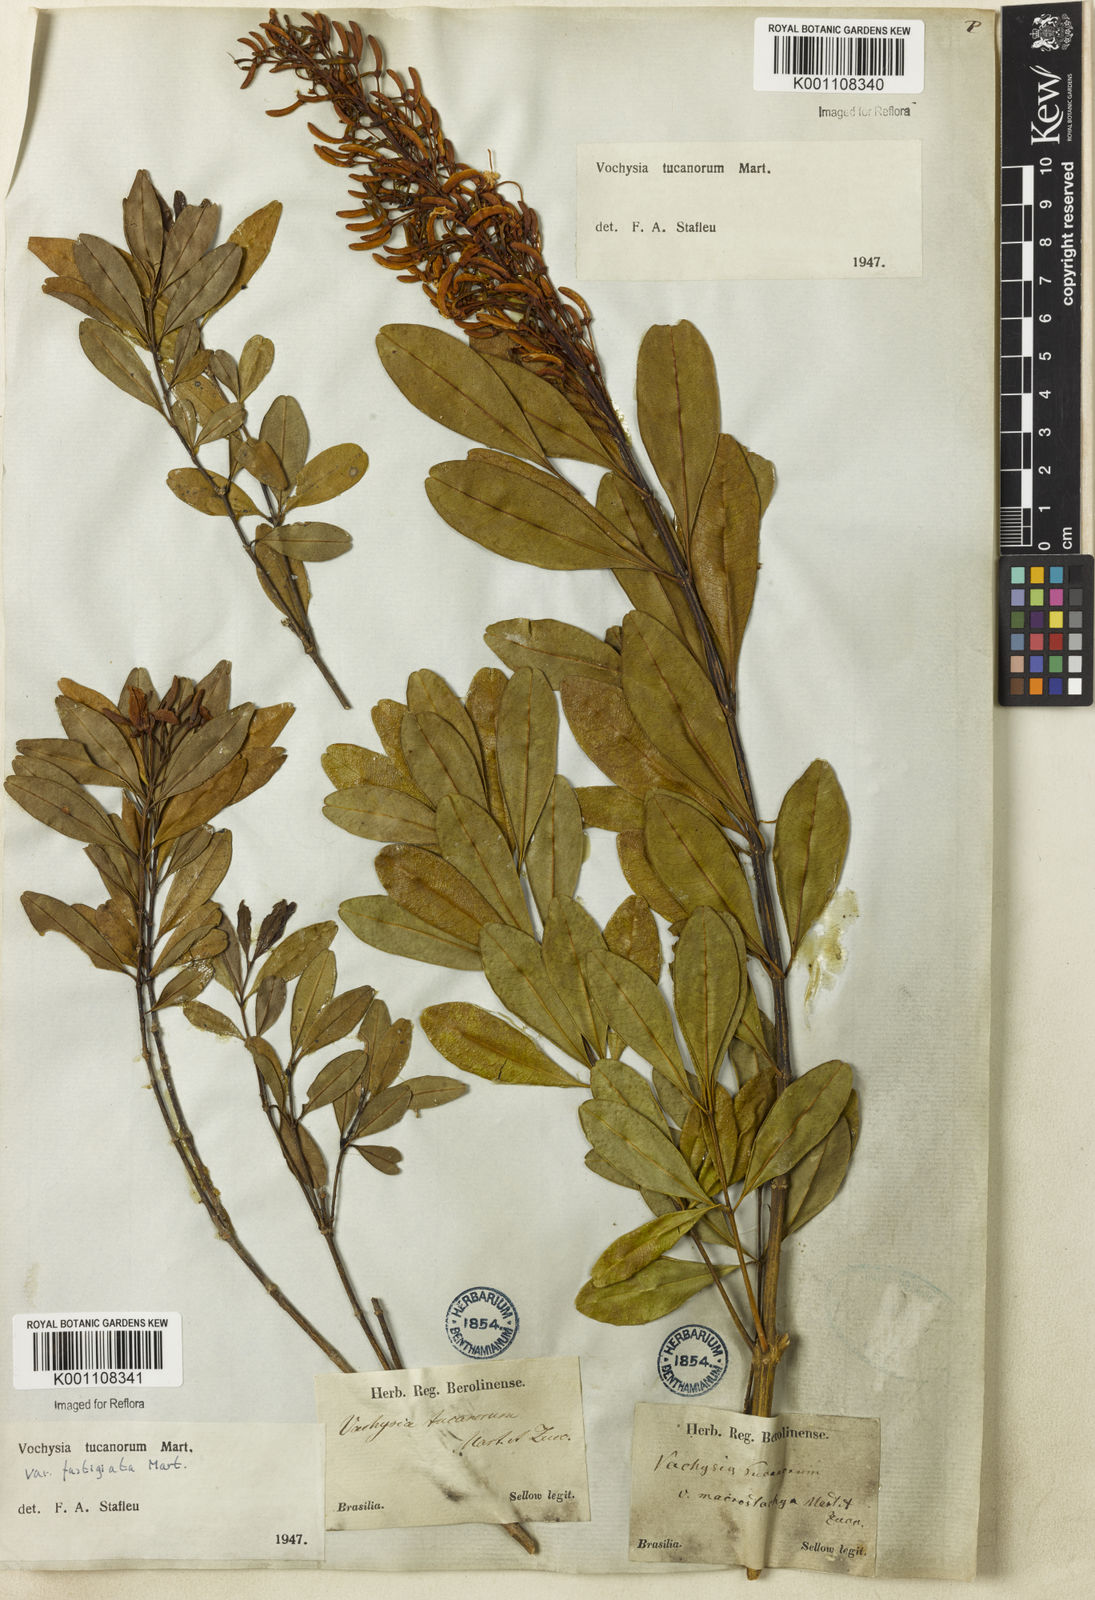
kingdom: Plantae
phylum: Tracheophyta
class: Magnoliopsida
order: Myrtales
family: Vochysiaceae
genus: Vochysia
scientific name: Vochysia tucanorum
